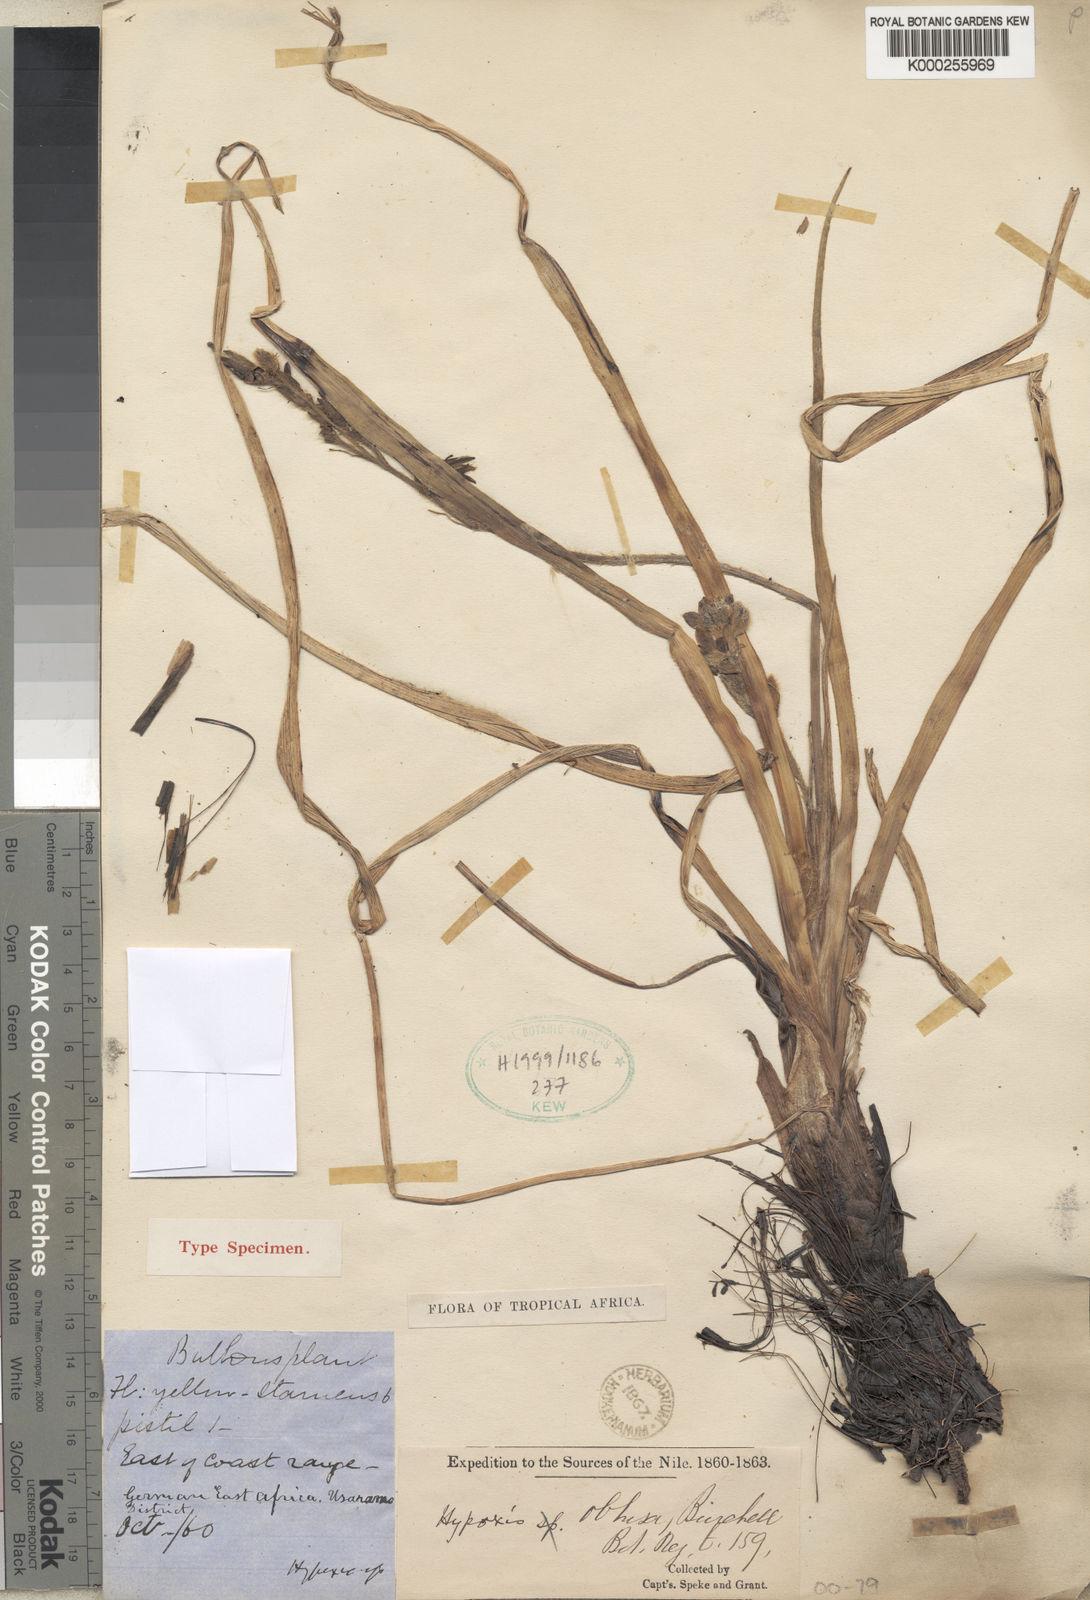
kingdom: Plantae
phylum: Tracheophyta
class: Liliopsida
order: Asparagales
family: Hypoxidaceae
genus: Hypoxis
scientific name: Hypoxis urceolata
